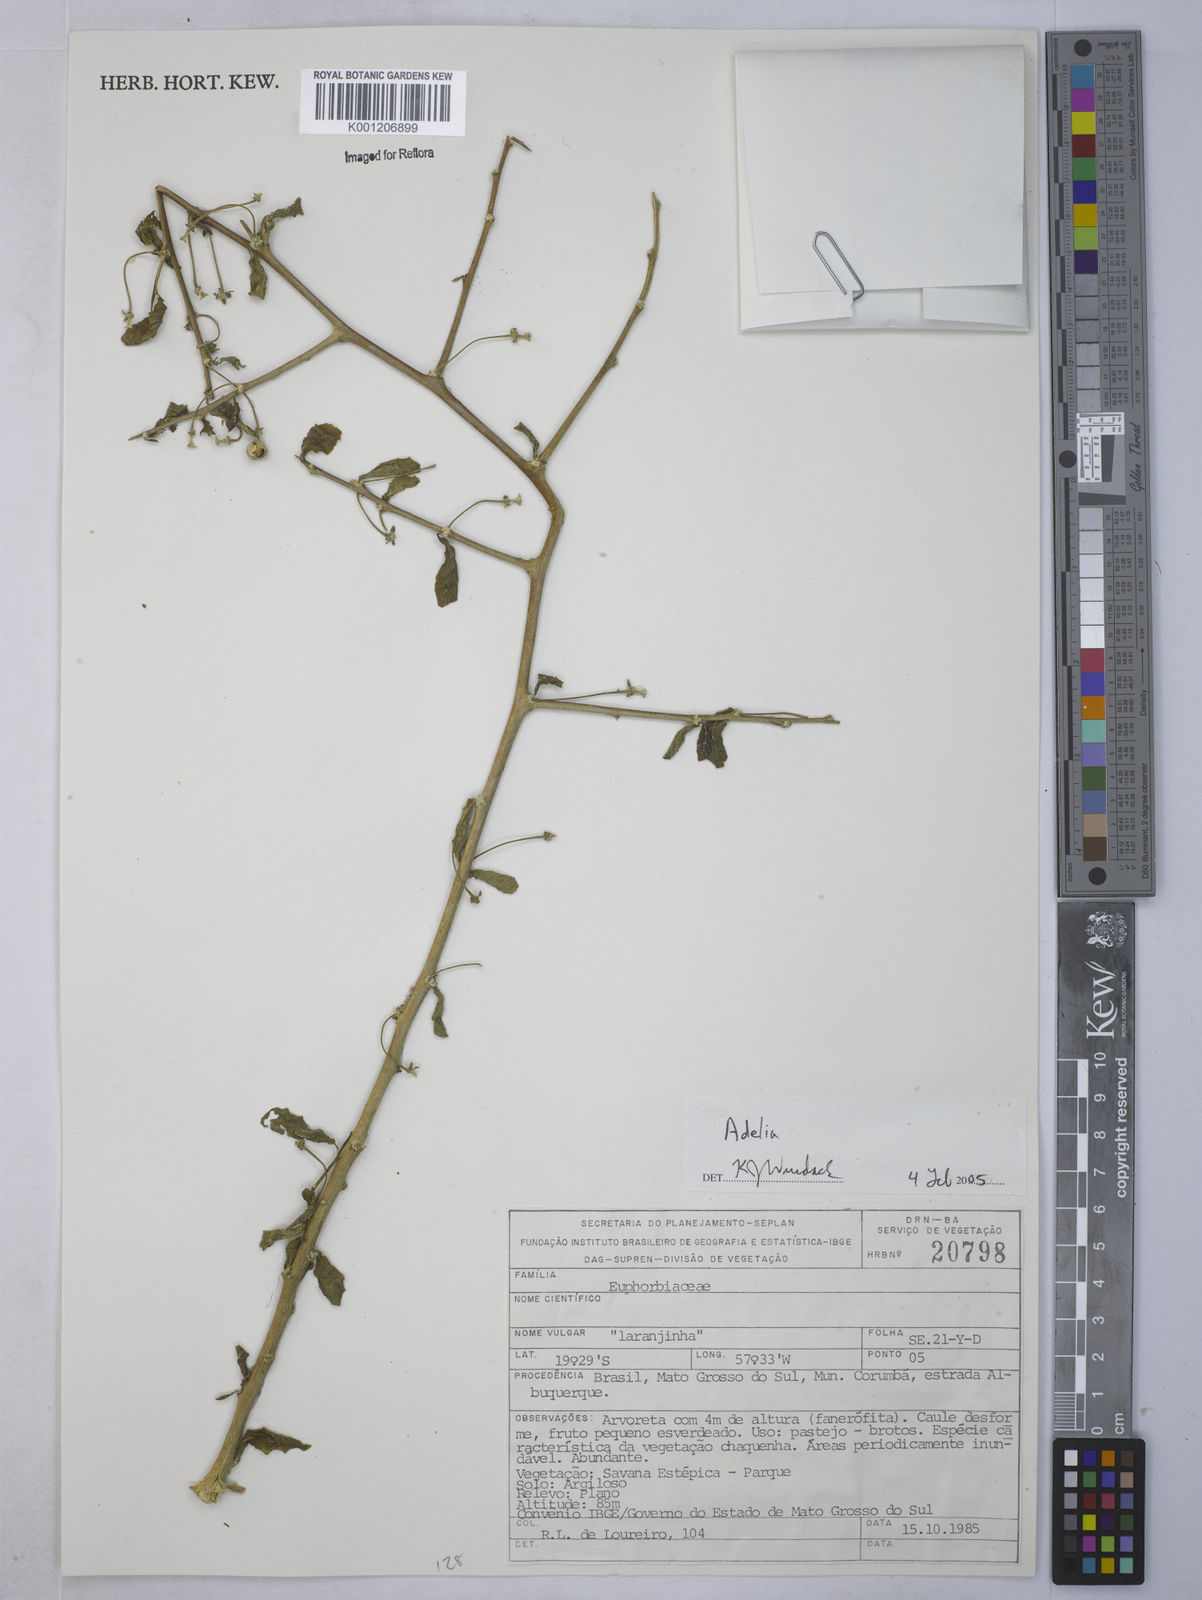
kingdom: Plantae
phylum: Tracheophyta
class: Magnoliopsida
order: Malpighiales
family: Euphorbiaceae
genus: Adelia
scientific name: Adelia
